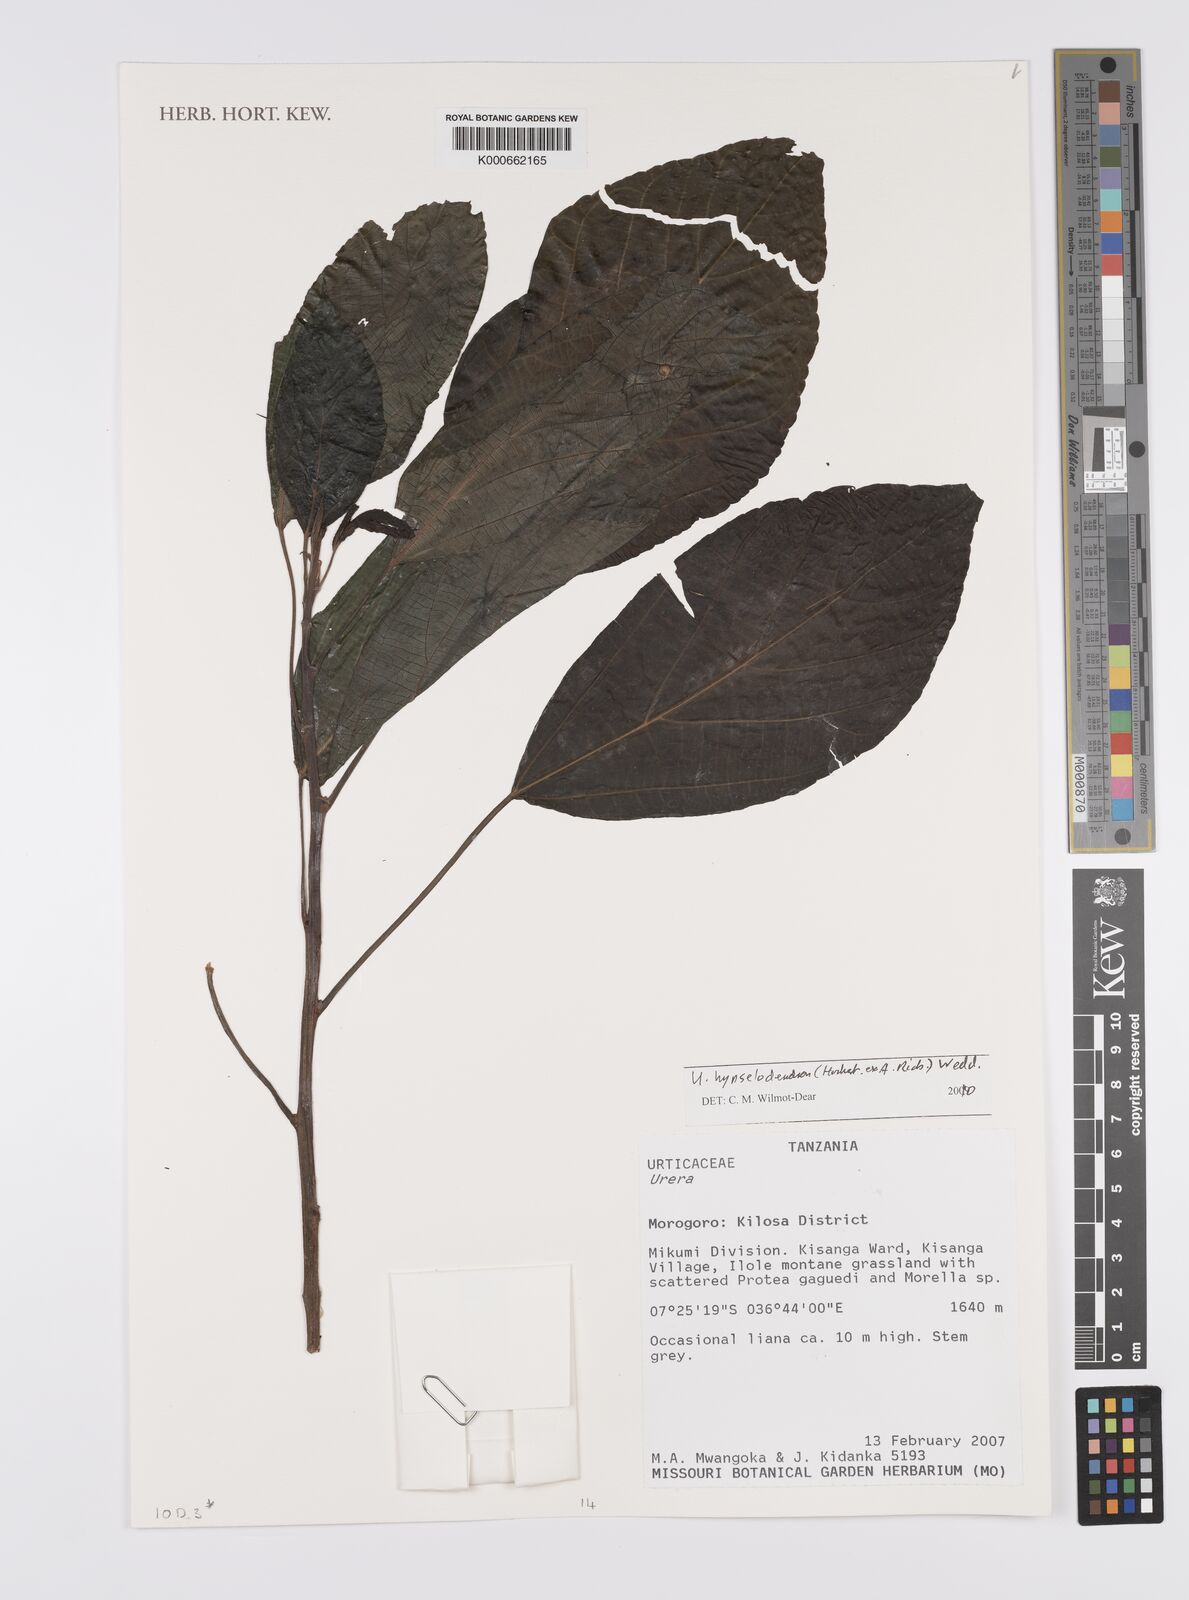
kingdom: Plantae
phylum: Tracheophyta
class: Magnoliopsida
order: Rosales
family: Urticaceae
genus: Urera
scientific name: Urera
